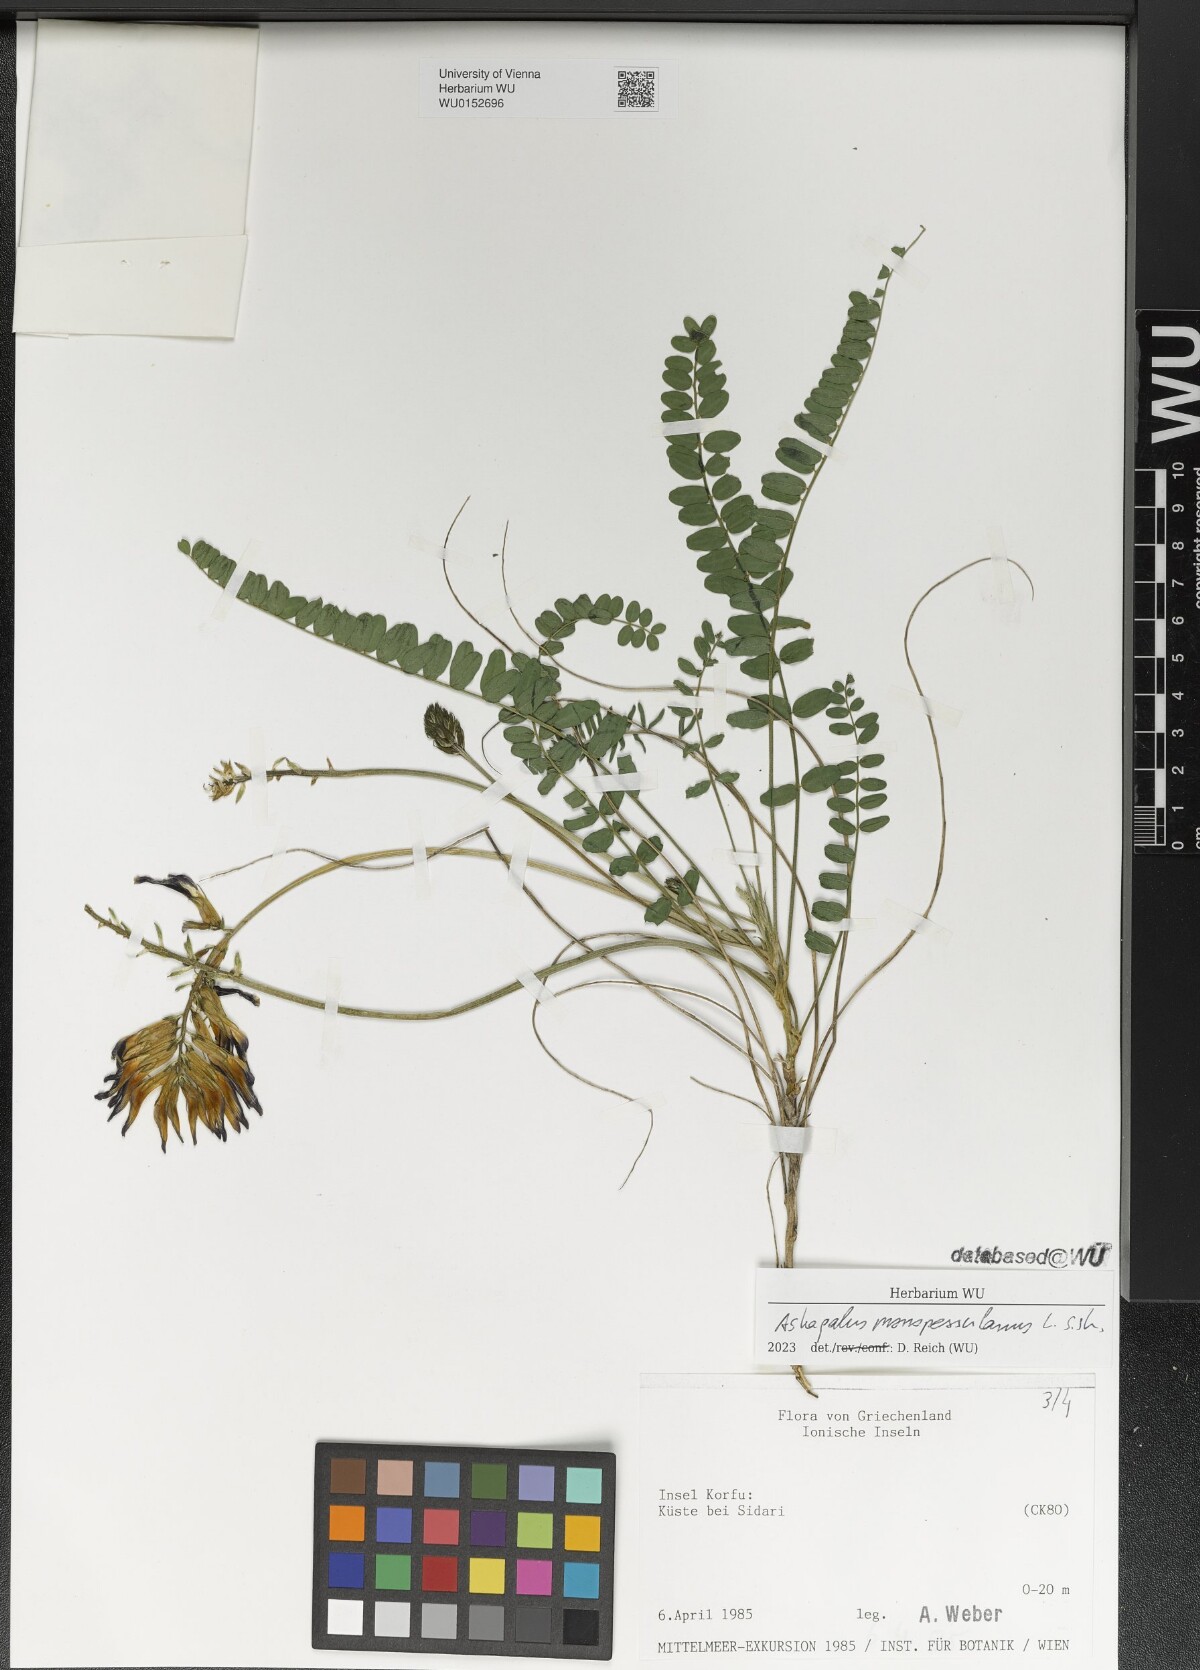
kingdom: Plantae
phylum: Tracheophyta
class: Magnoliopsida
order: Fabales
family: Fabaceae
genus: Astragalus
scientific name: Astragalus monspessulanus
